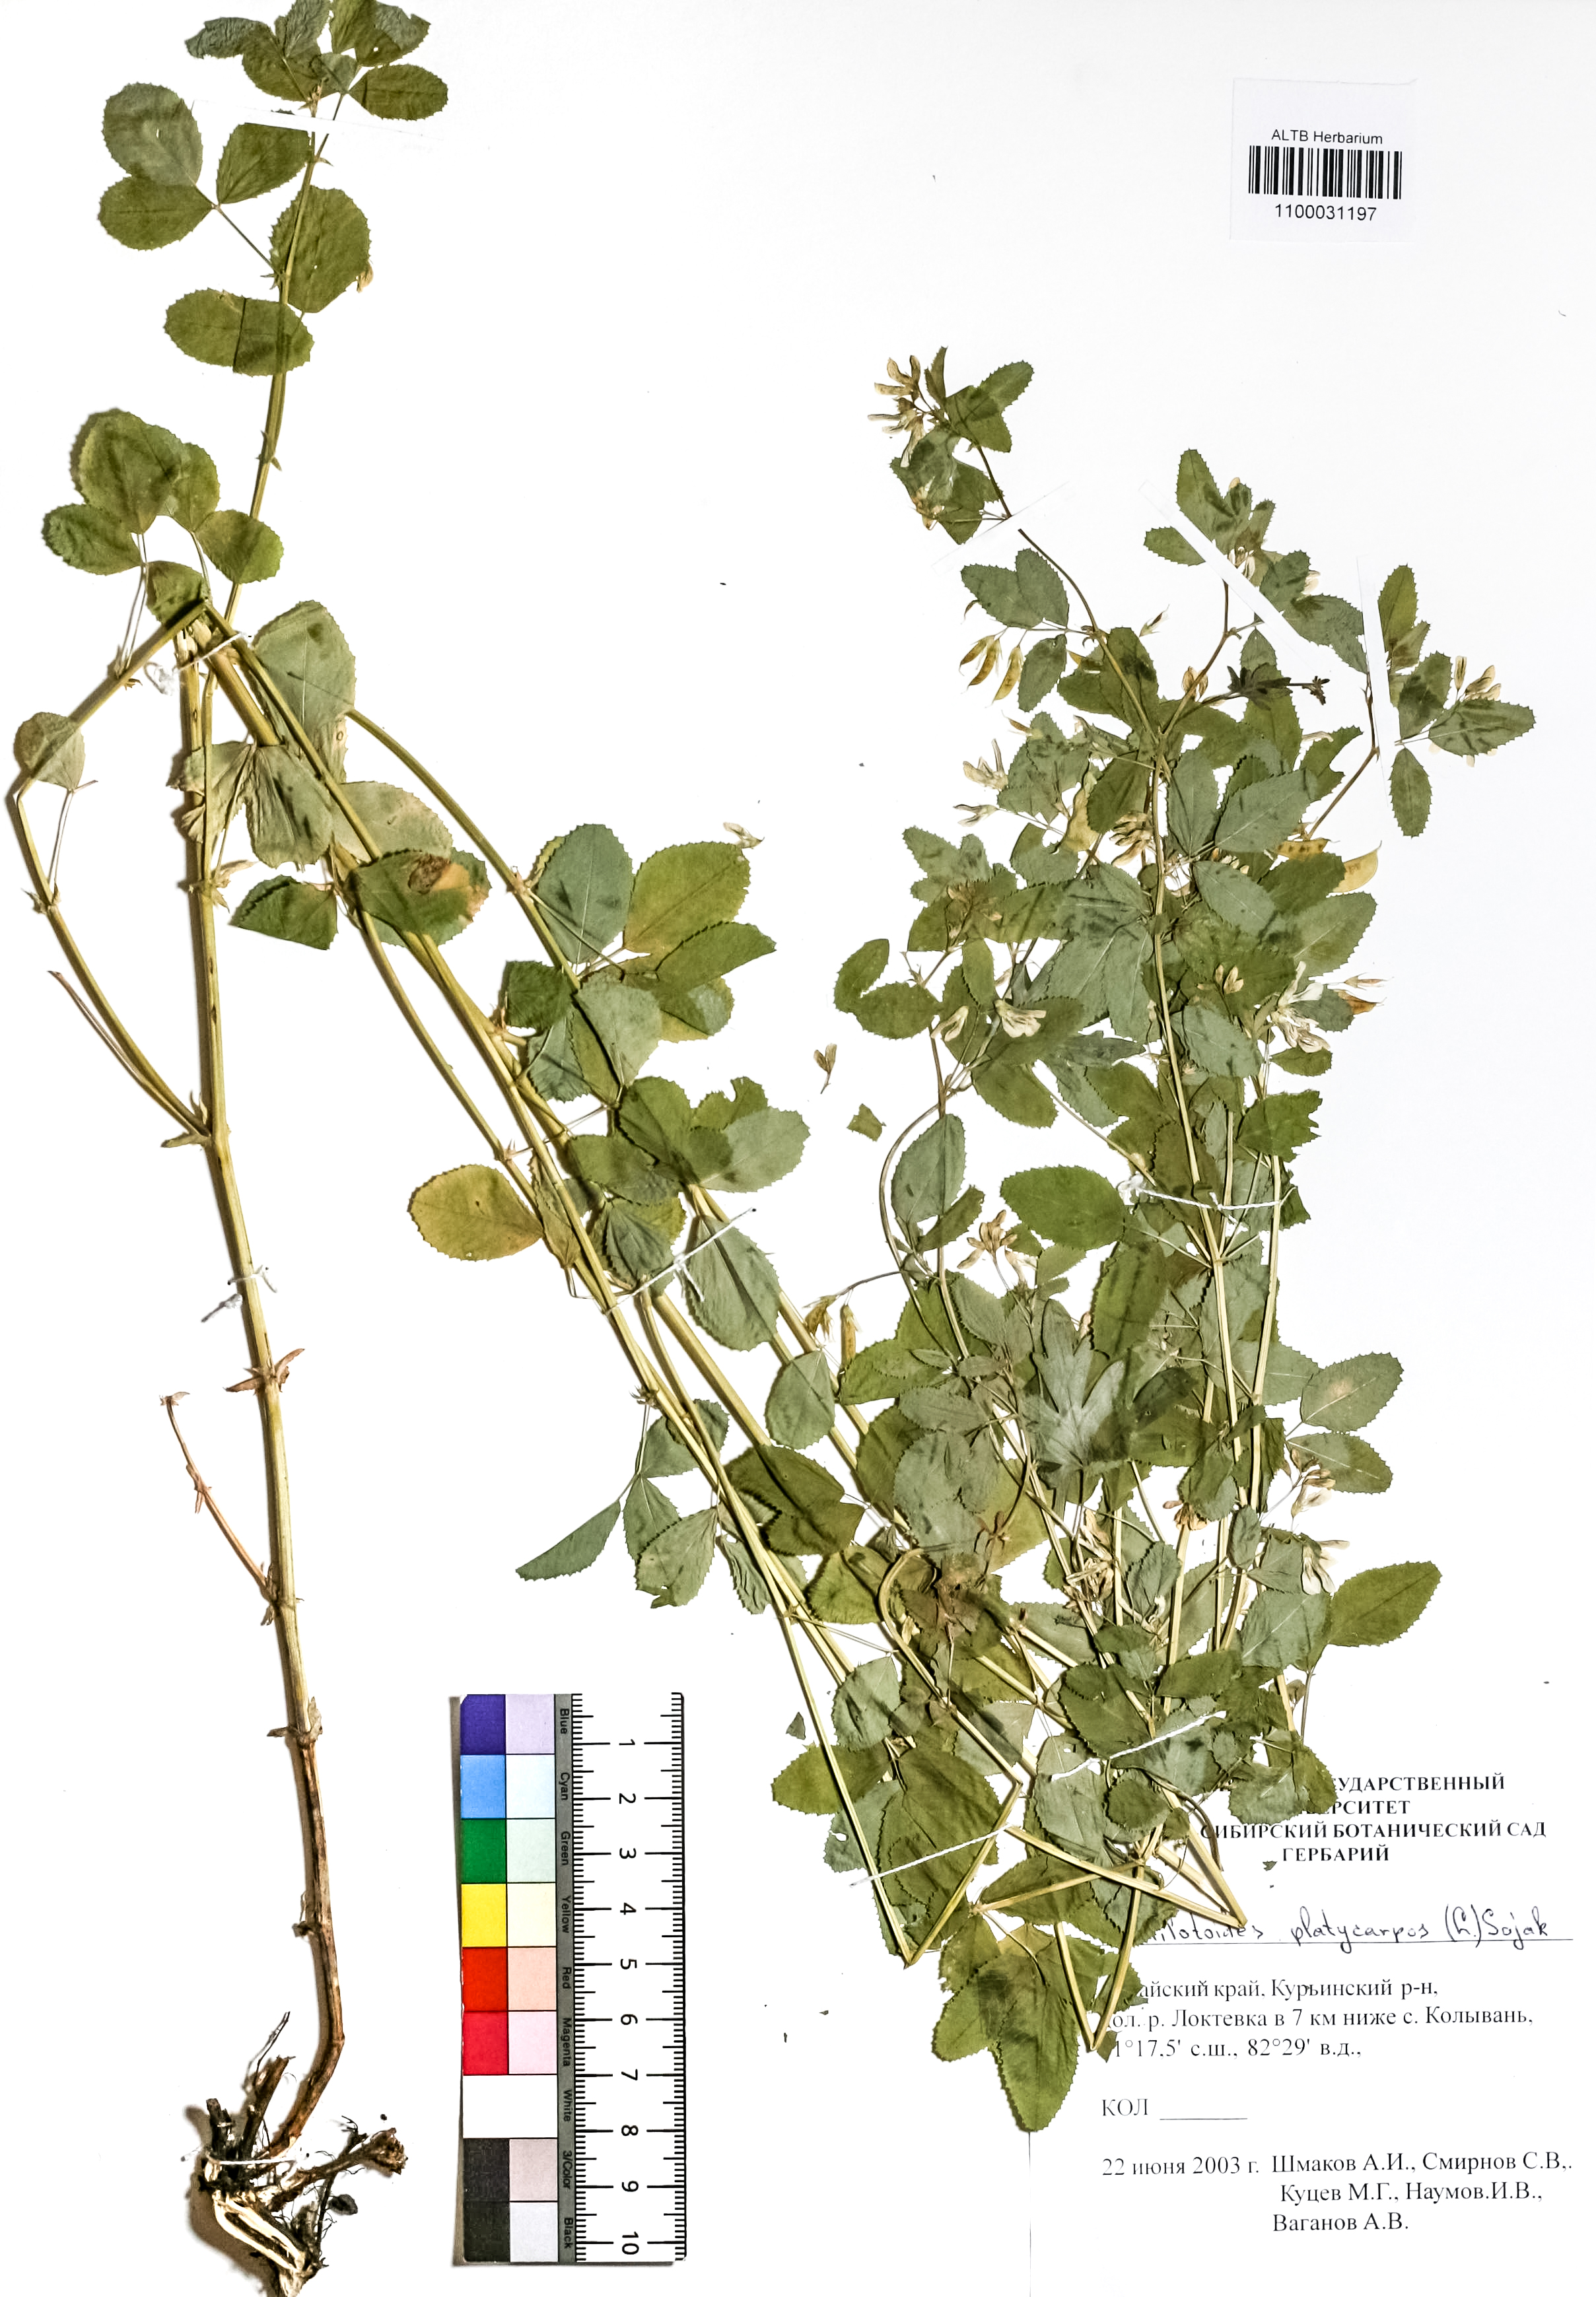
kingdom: Plantae
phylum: Tracheophyta
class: Magnoliopsida
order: Fabales
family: Fabaceae
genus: Medicago
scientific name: Medicago platycarpos
